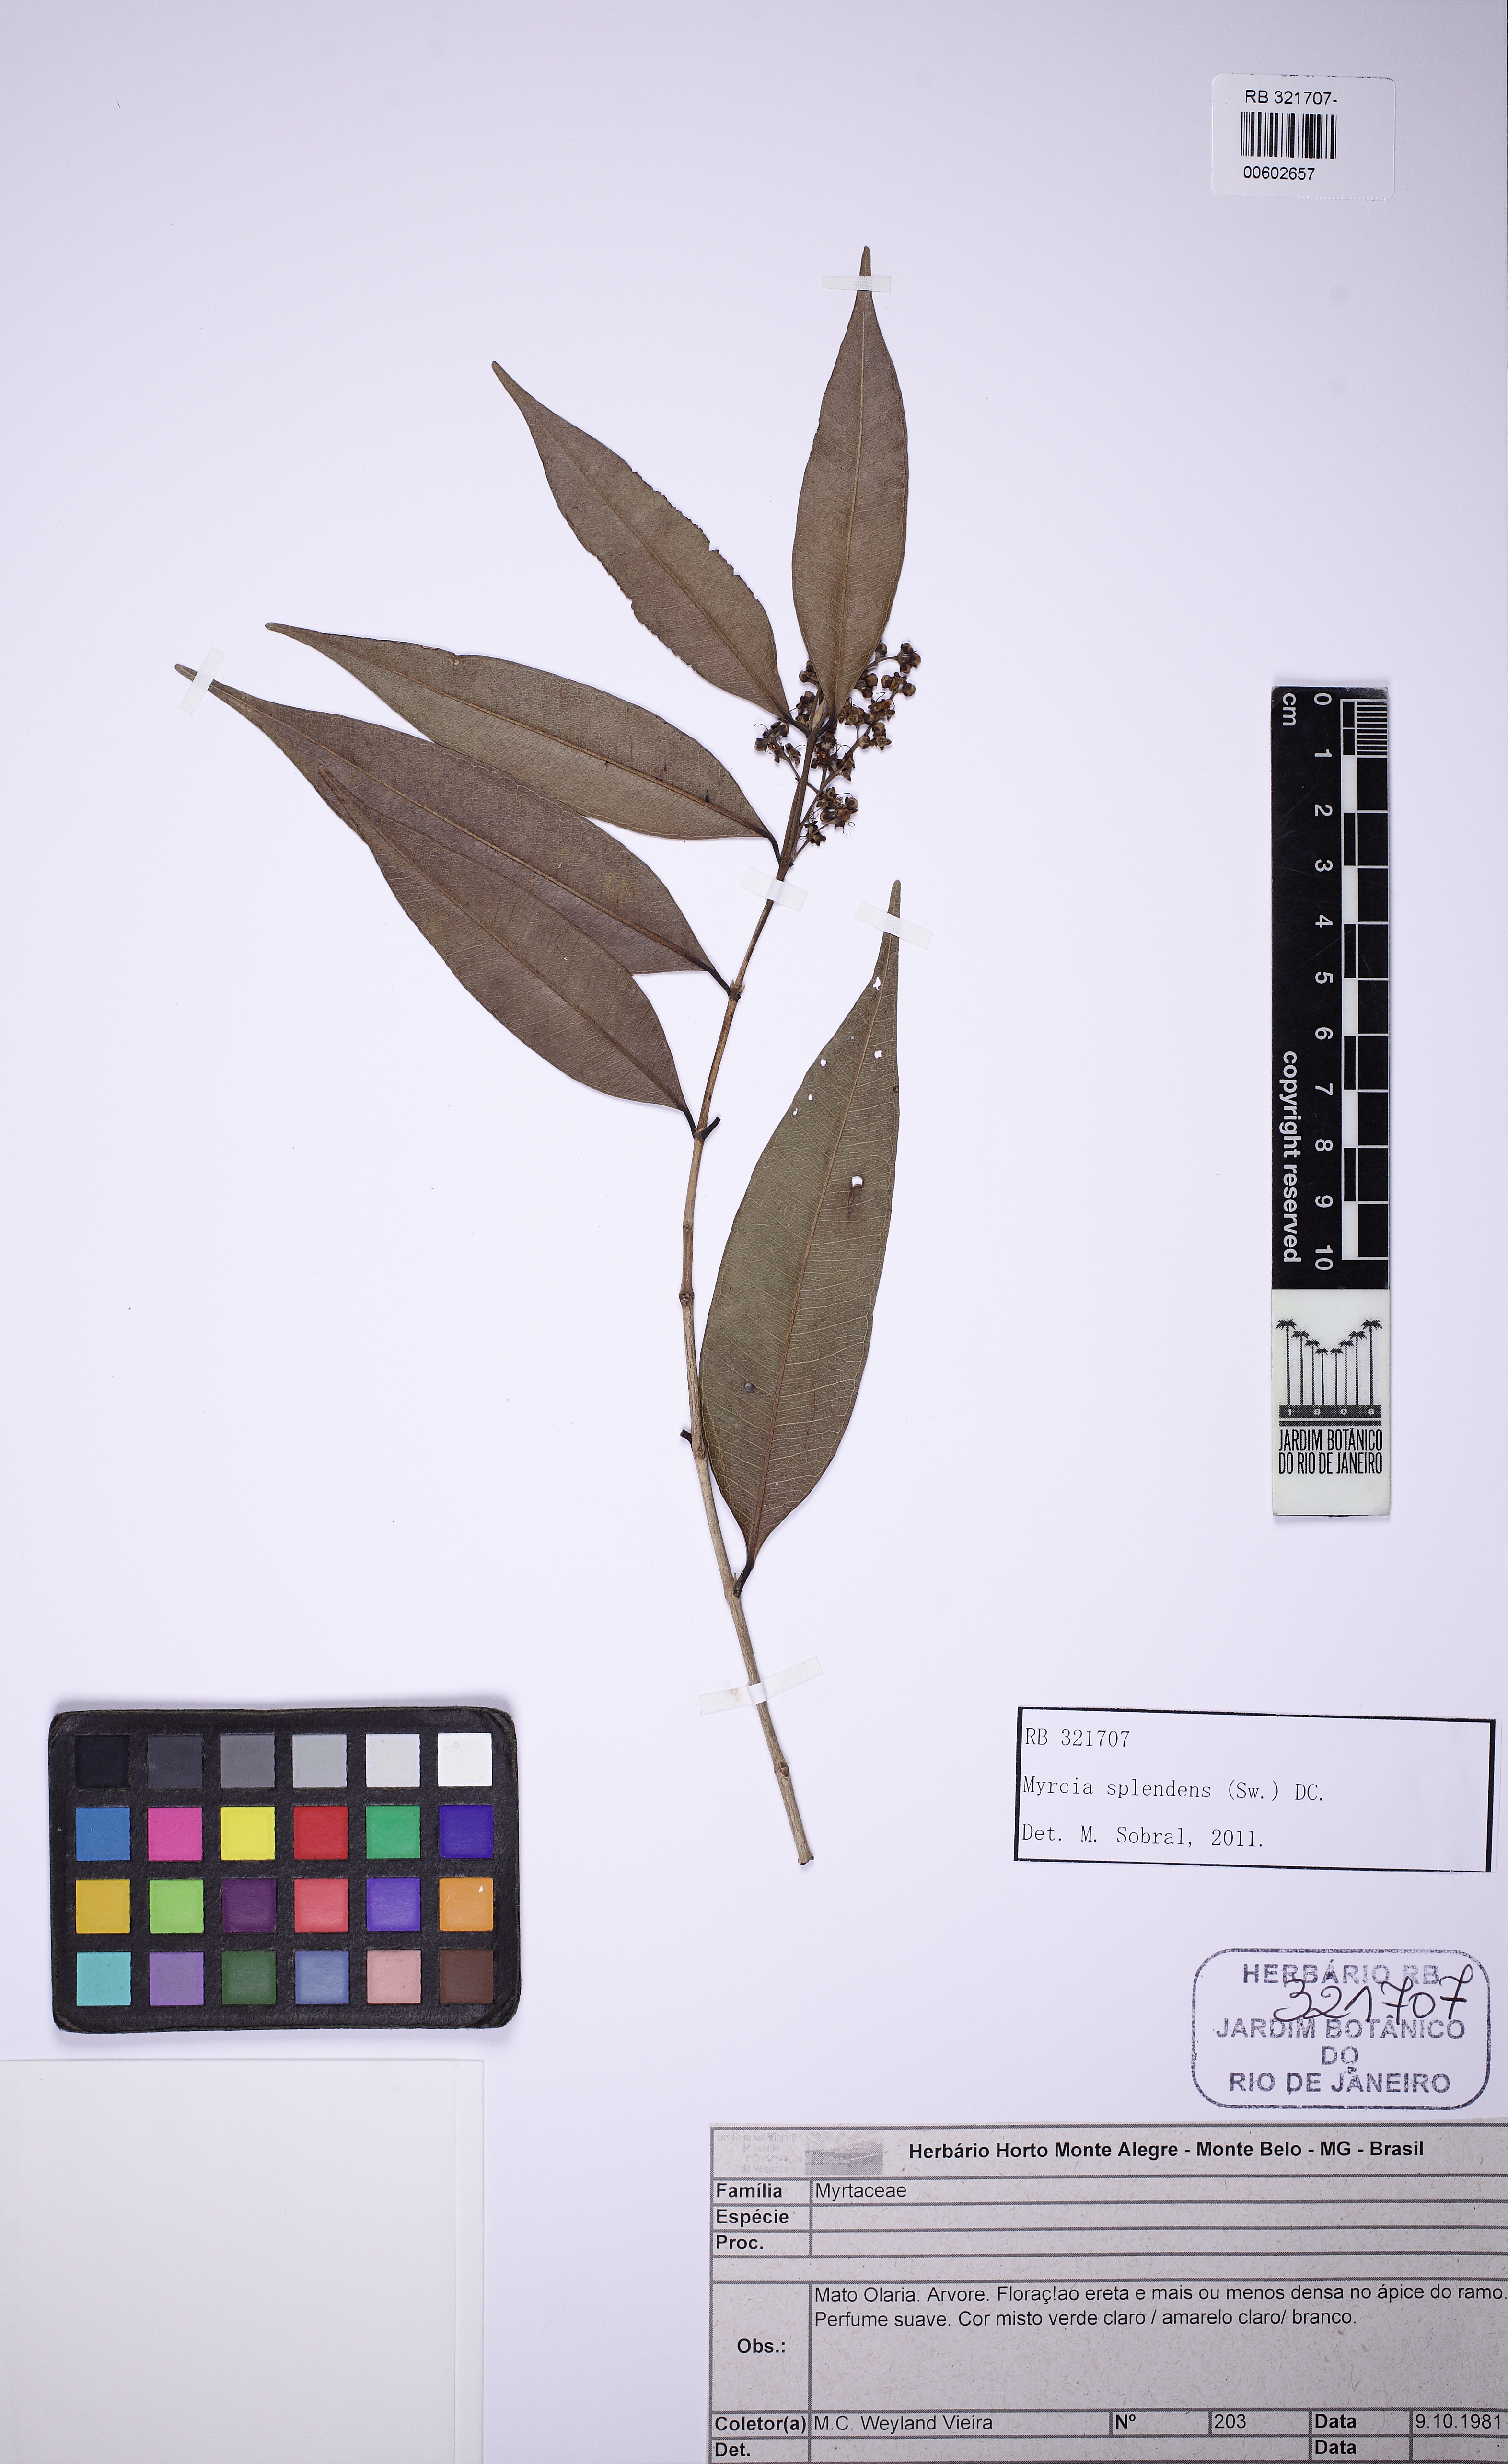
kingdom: Plantae
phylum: Tracheophyta
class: Magnoliopsida
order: Myrtales
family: Myrtaceae
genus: Myrcia
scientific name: Myrcia splendens
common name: Surinam cherry
